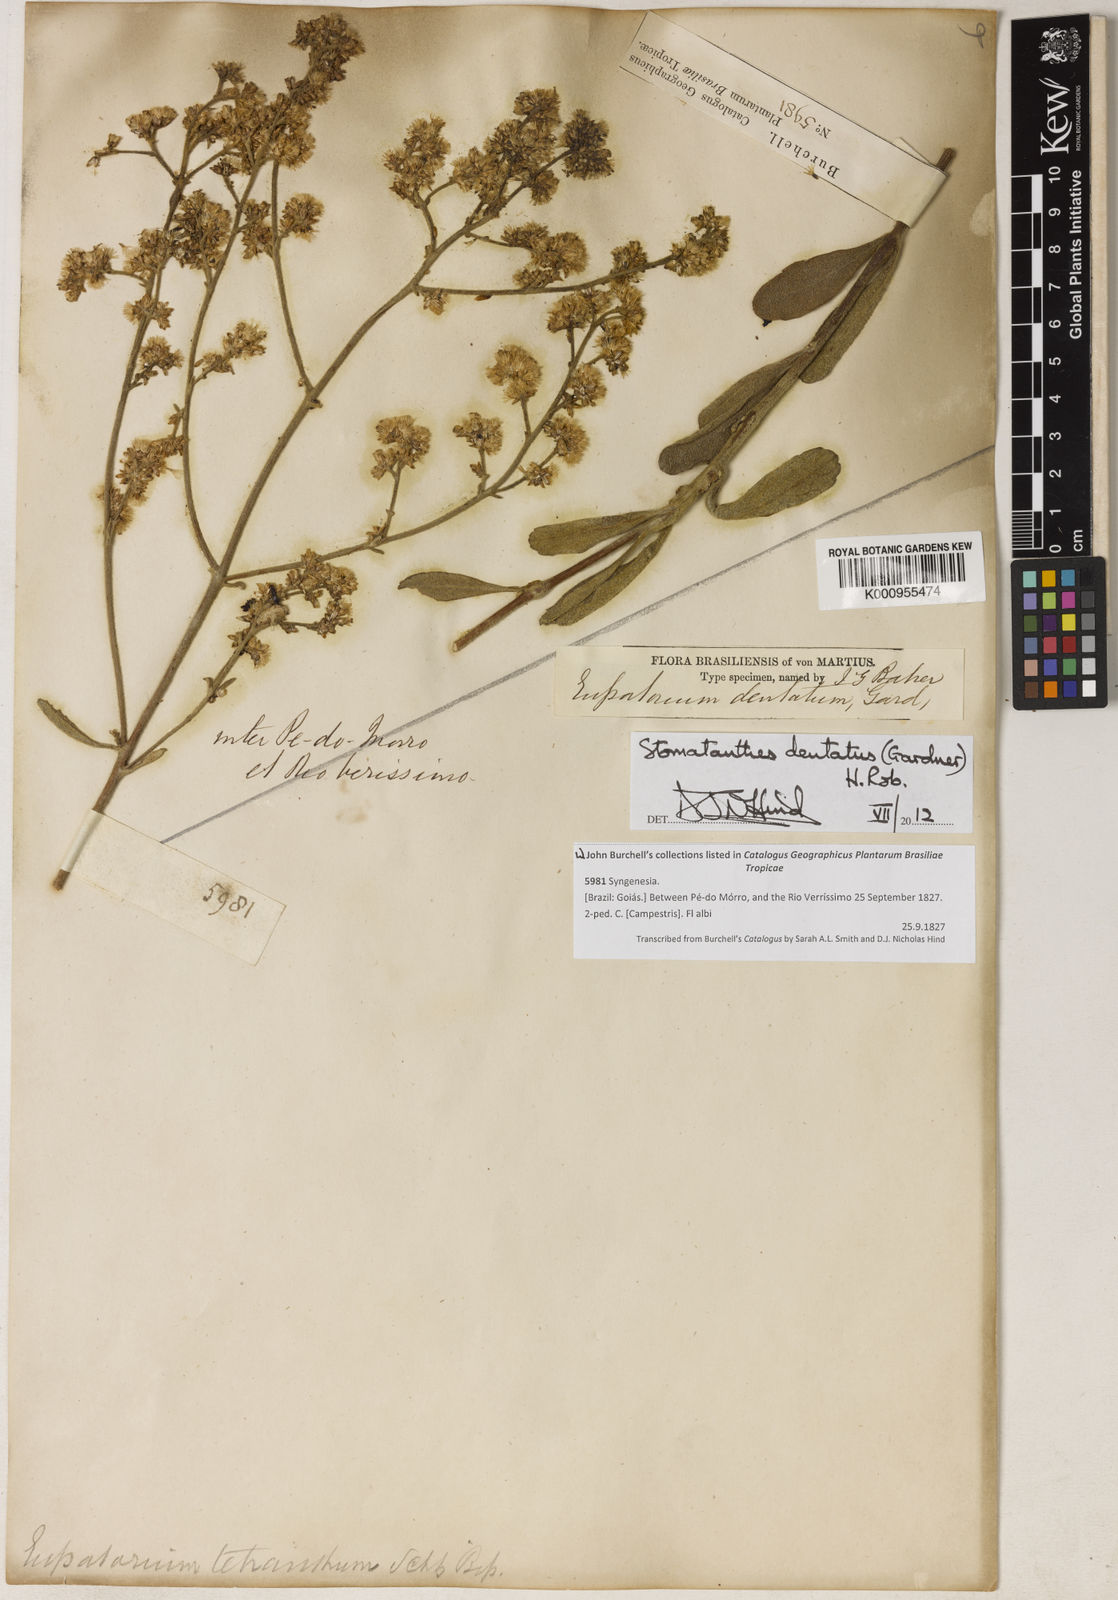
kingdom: Plantae
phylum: Tracheophyta
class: Magnoliopsida
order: Asterales
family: Asteraceae
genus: Stomatanthes
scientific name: Stomatanthes dentatus
